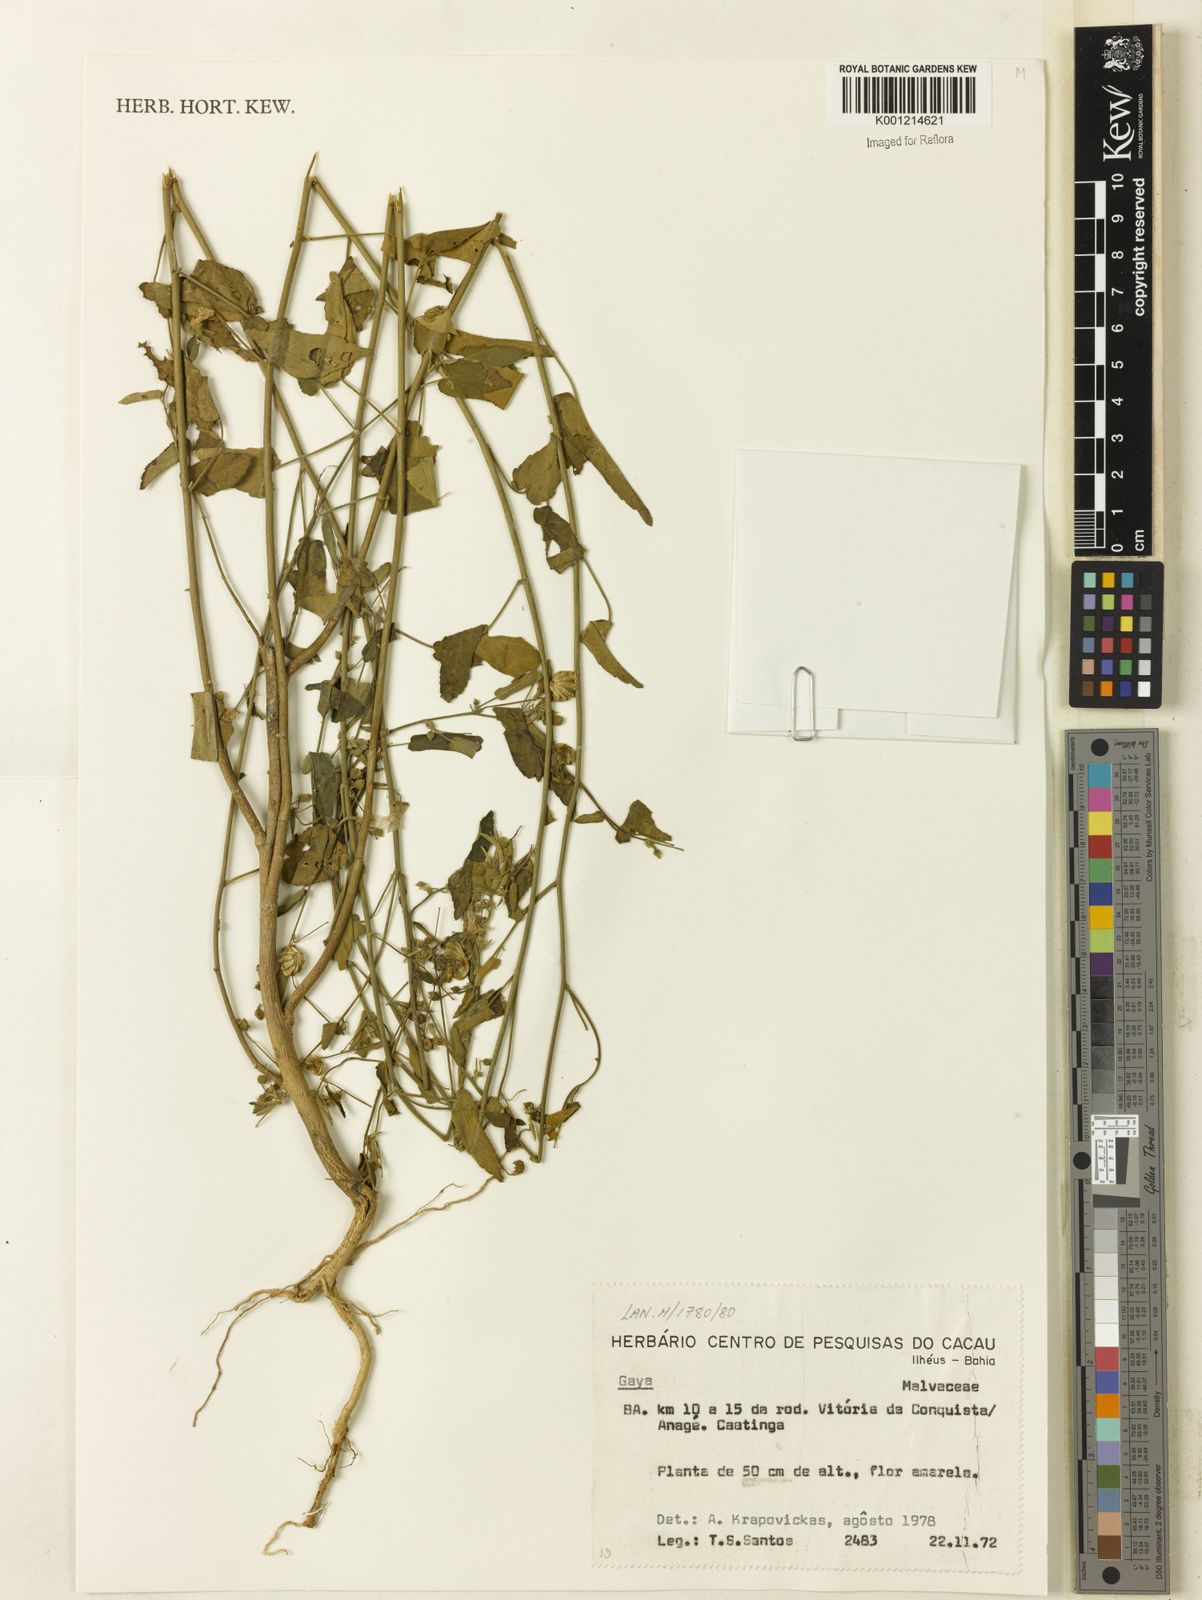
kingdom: Plantae
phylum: Tracheophyta
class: Magnoliopsida
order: Malvales
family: Malvaceae
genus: Gaya
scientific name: Gaya
